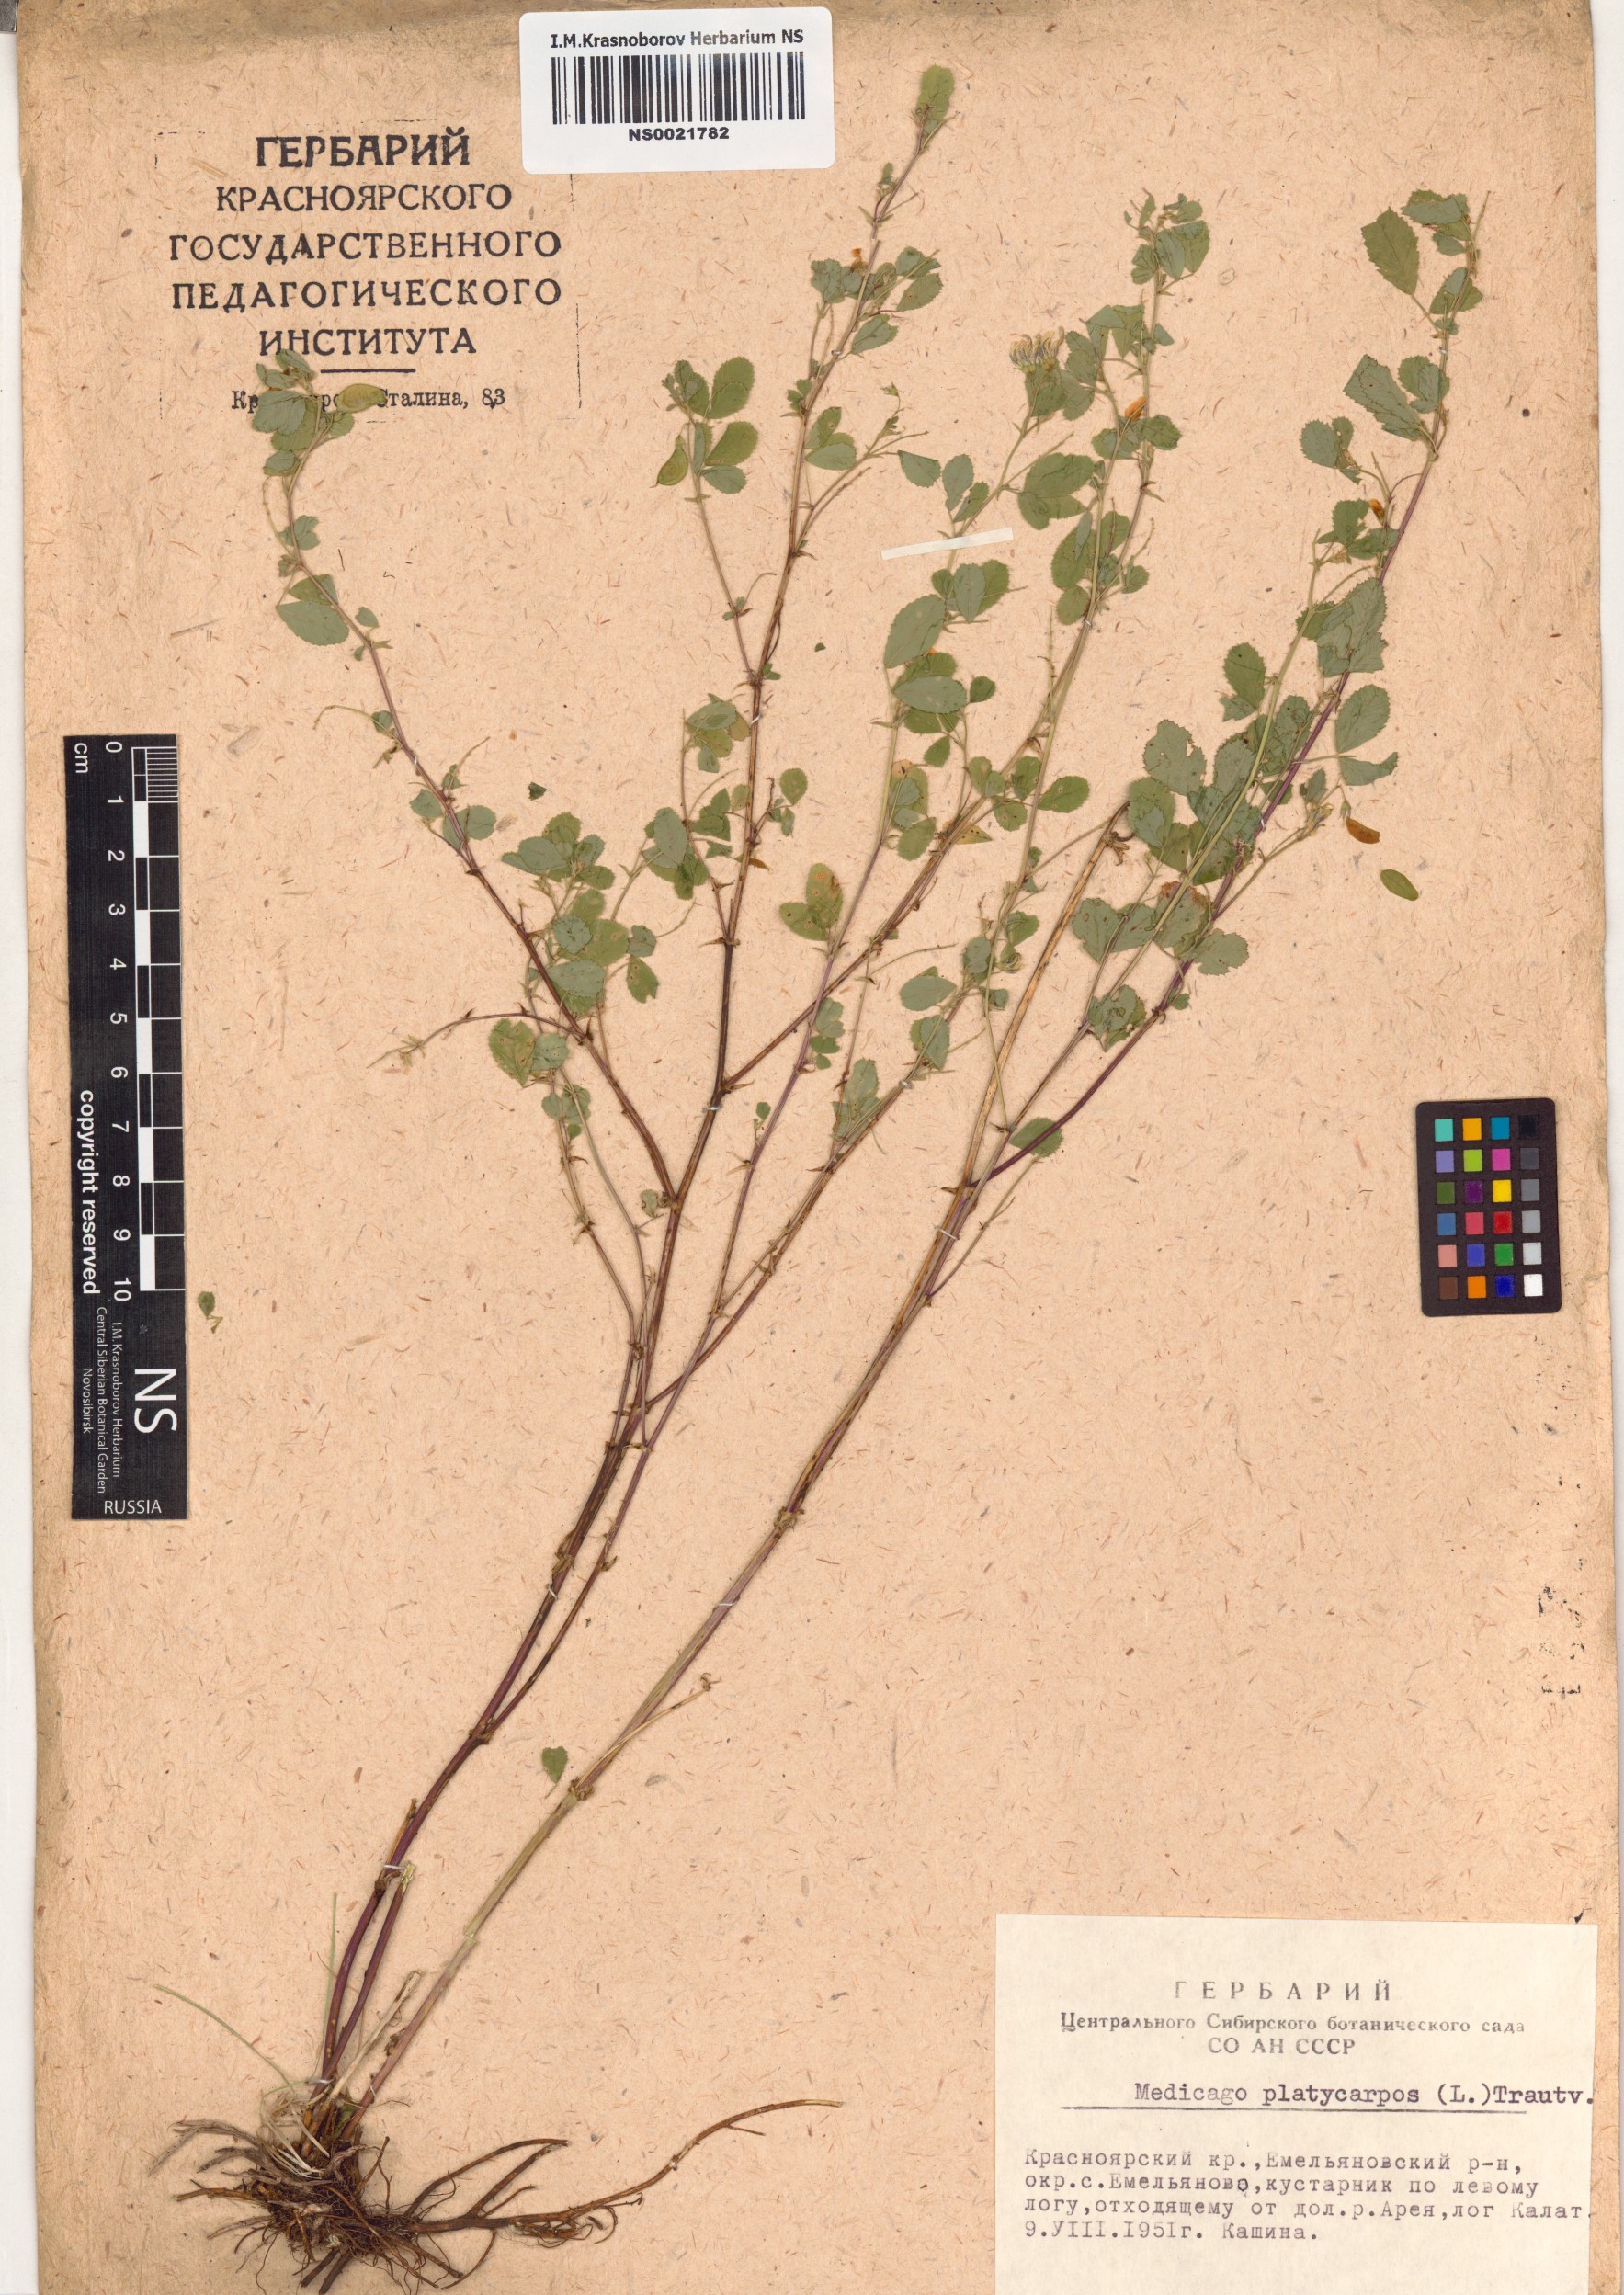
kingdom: Plantae
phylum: Tracheophyta
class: Magnoliopsida
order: Fabales
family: Fabaceae
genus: Medicago
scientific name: Medicago platycarpos
